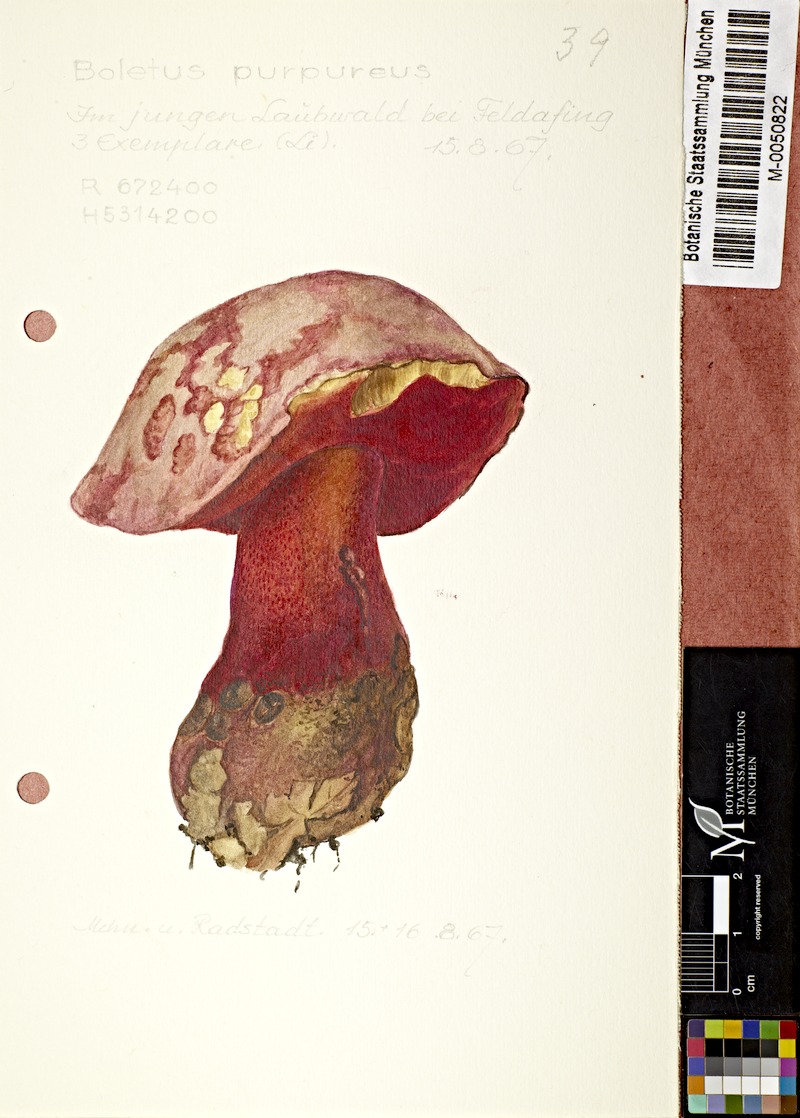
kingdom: Fungi
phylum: Basidiomycota
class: Agaricomycetes
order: Boletales
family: Boletaceae
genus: Boletus
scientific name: Boletus purpureus
